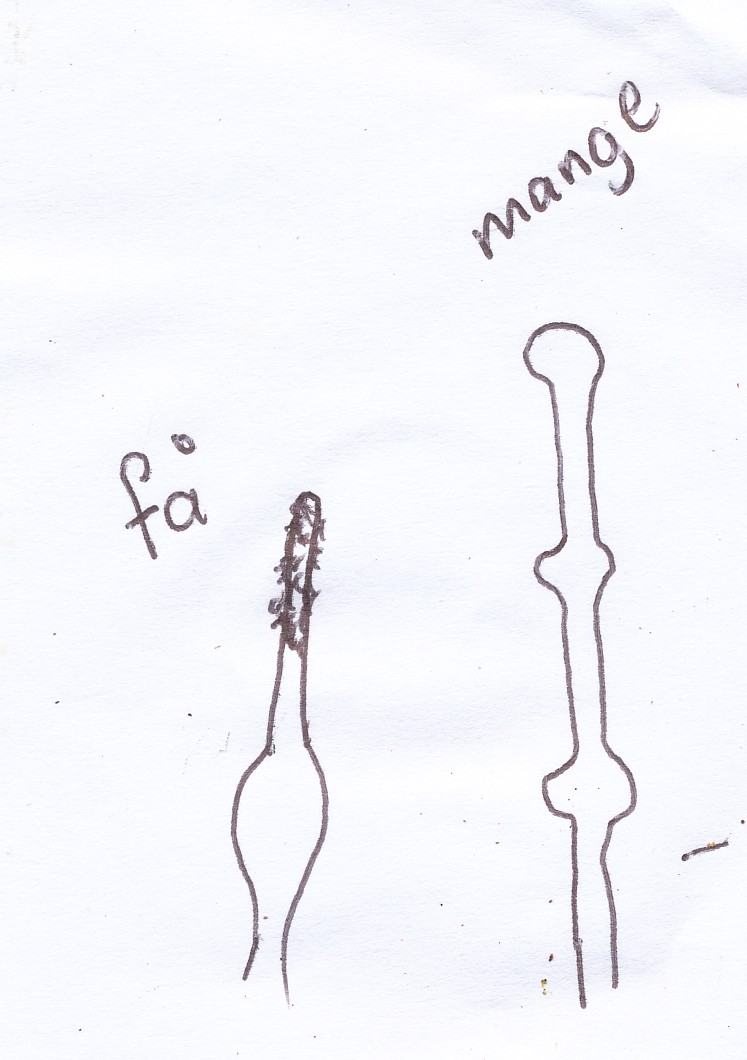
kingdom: Fungi
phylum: Basidiomycota
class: Agaricomycetes
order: Hymenochaetales
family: Hyphodontiaceae
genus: Hyphodontia
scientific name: Hyphodontia alutaria
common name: flaskerenser-nålehinde
